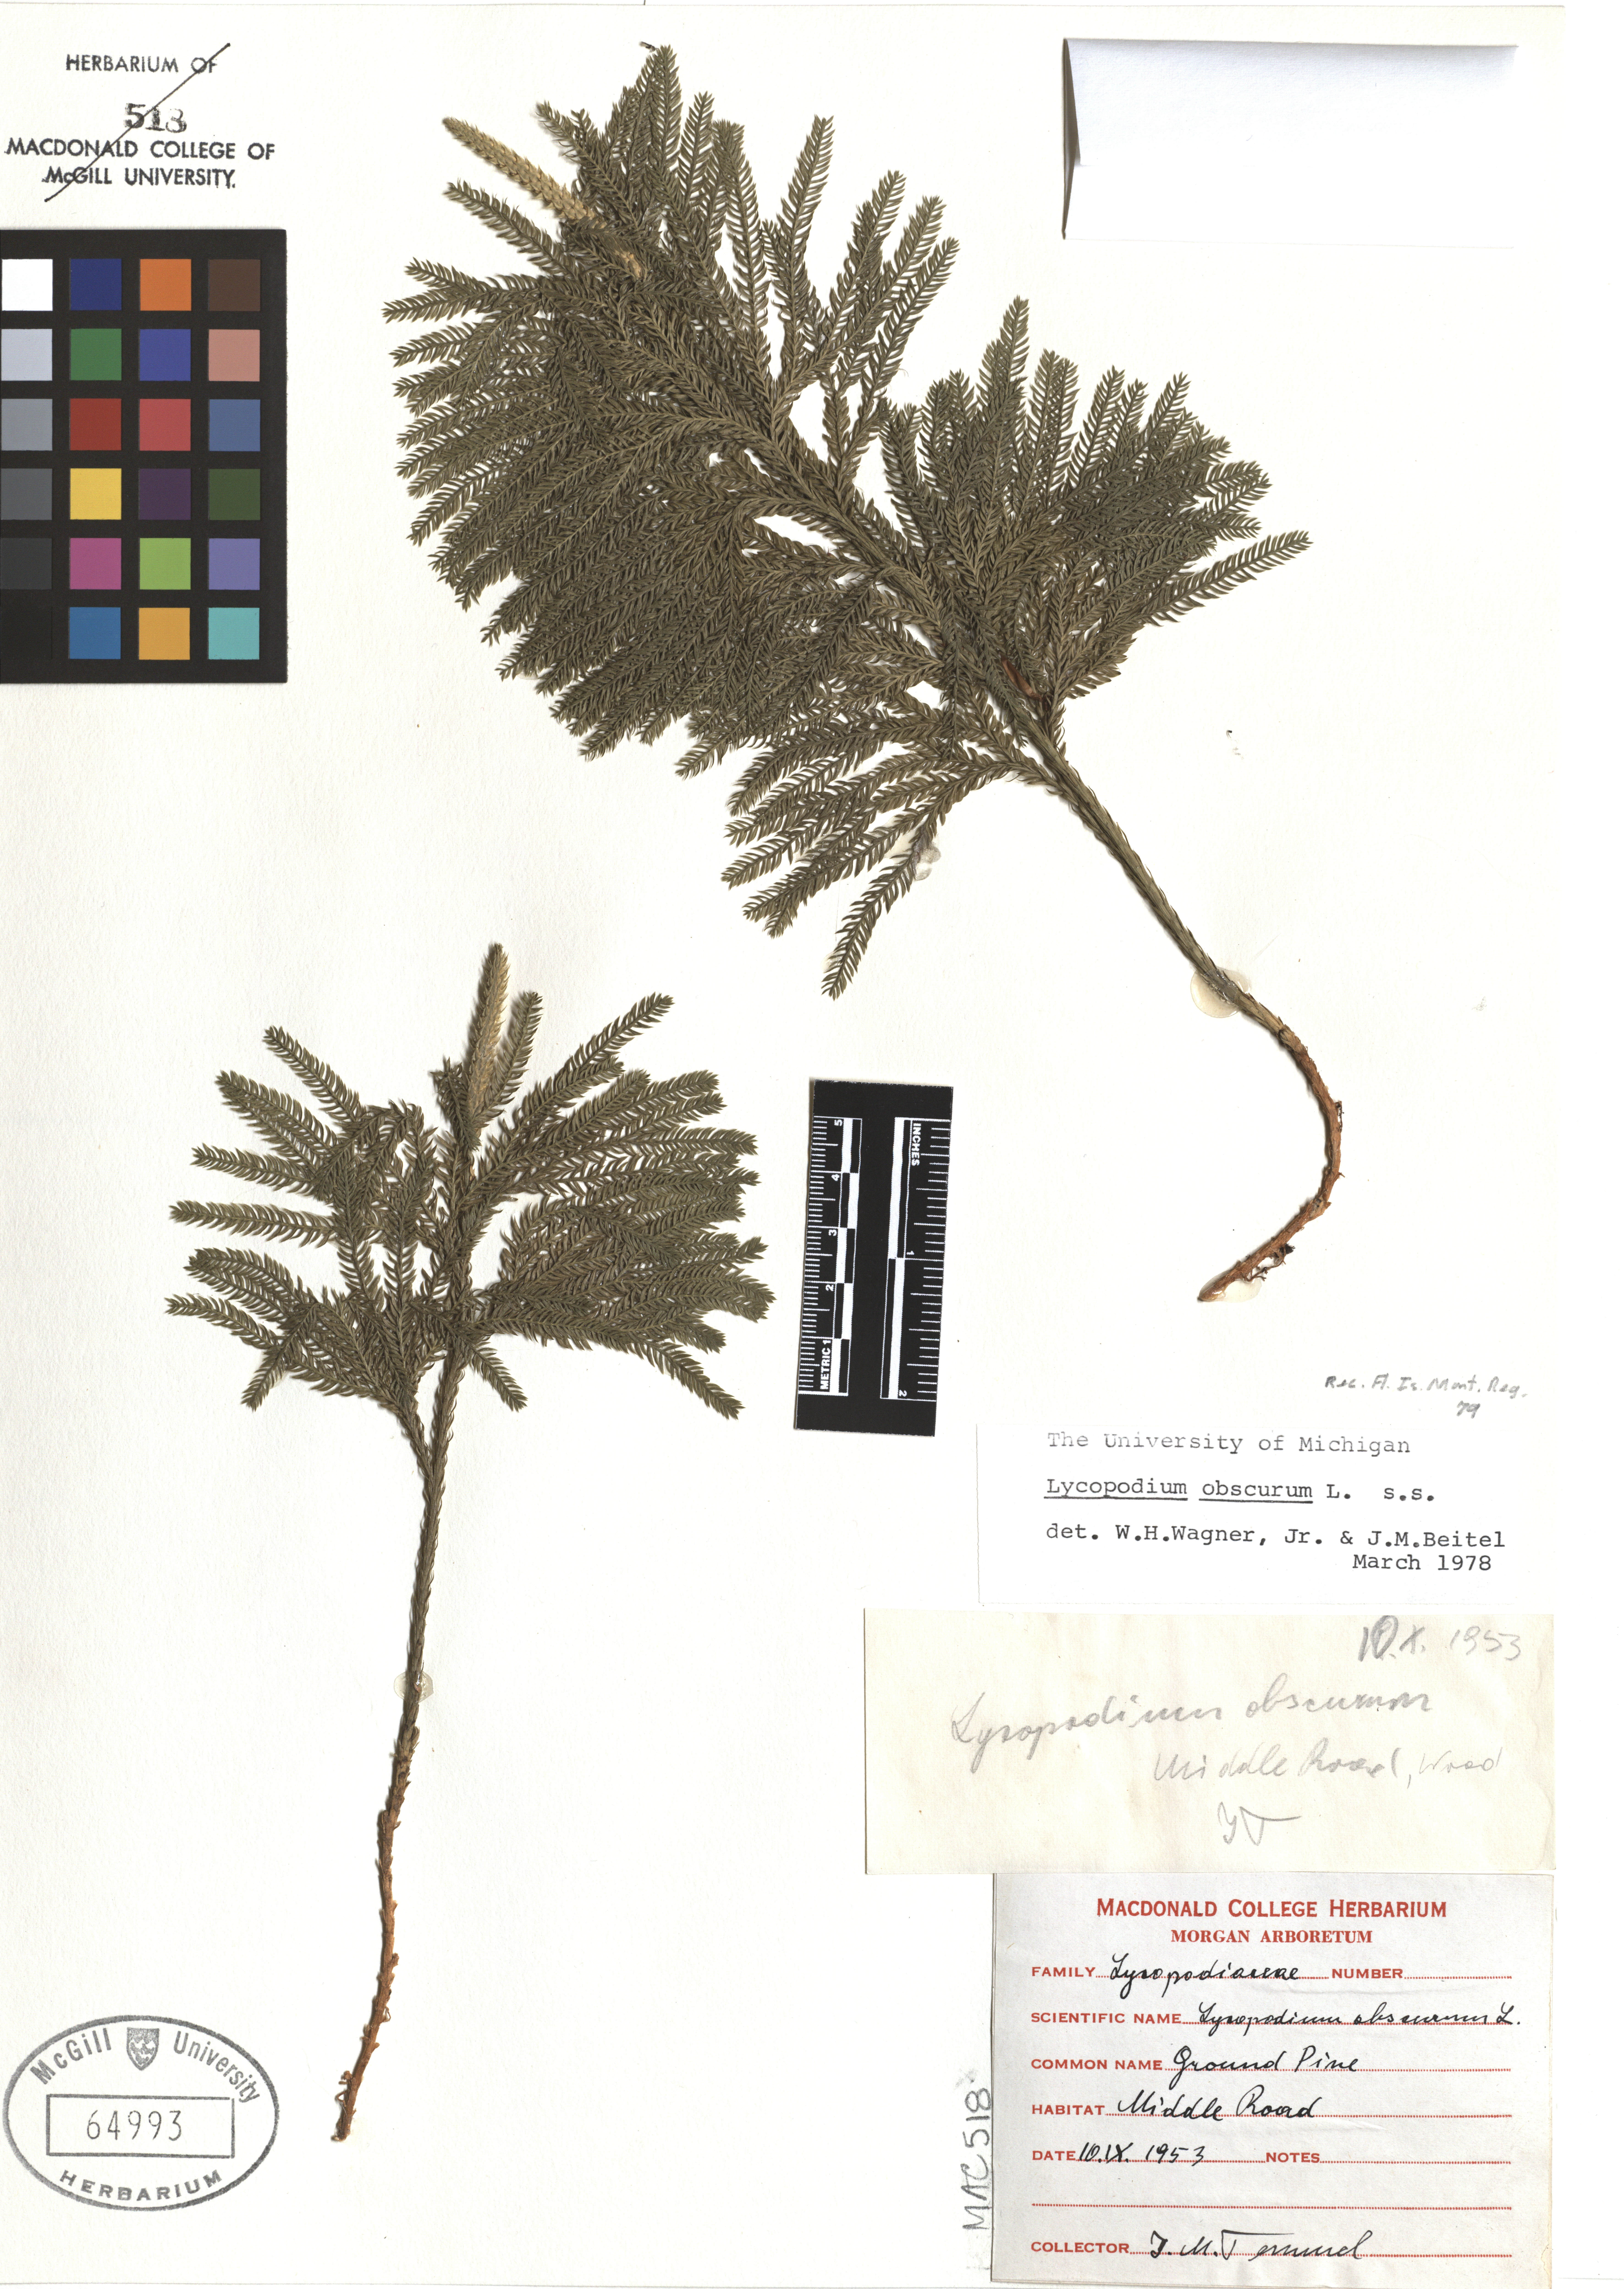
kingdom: Plantae
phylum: Tracheophyta
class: Lycopodiopsida
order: Lycopodiales
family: Lycopodiaceae
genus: Dendrolycopodium
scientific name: Dendrolycopodium obscurum
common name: Common ground-pine
